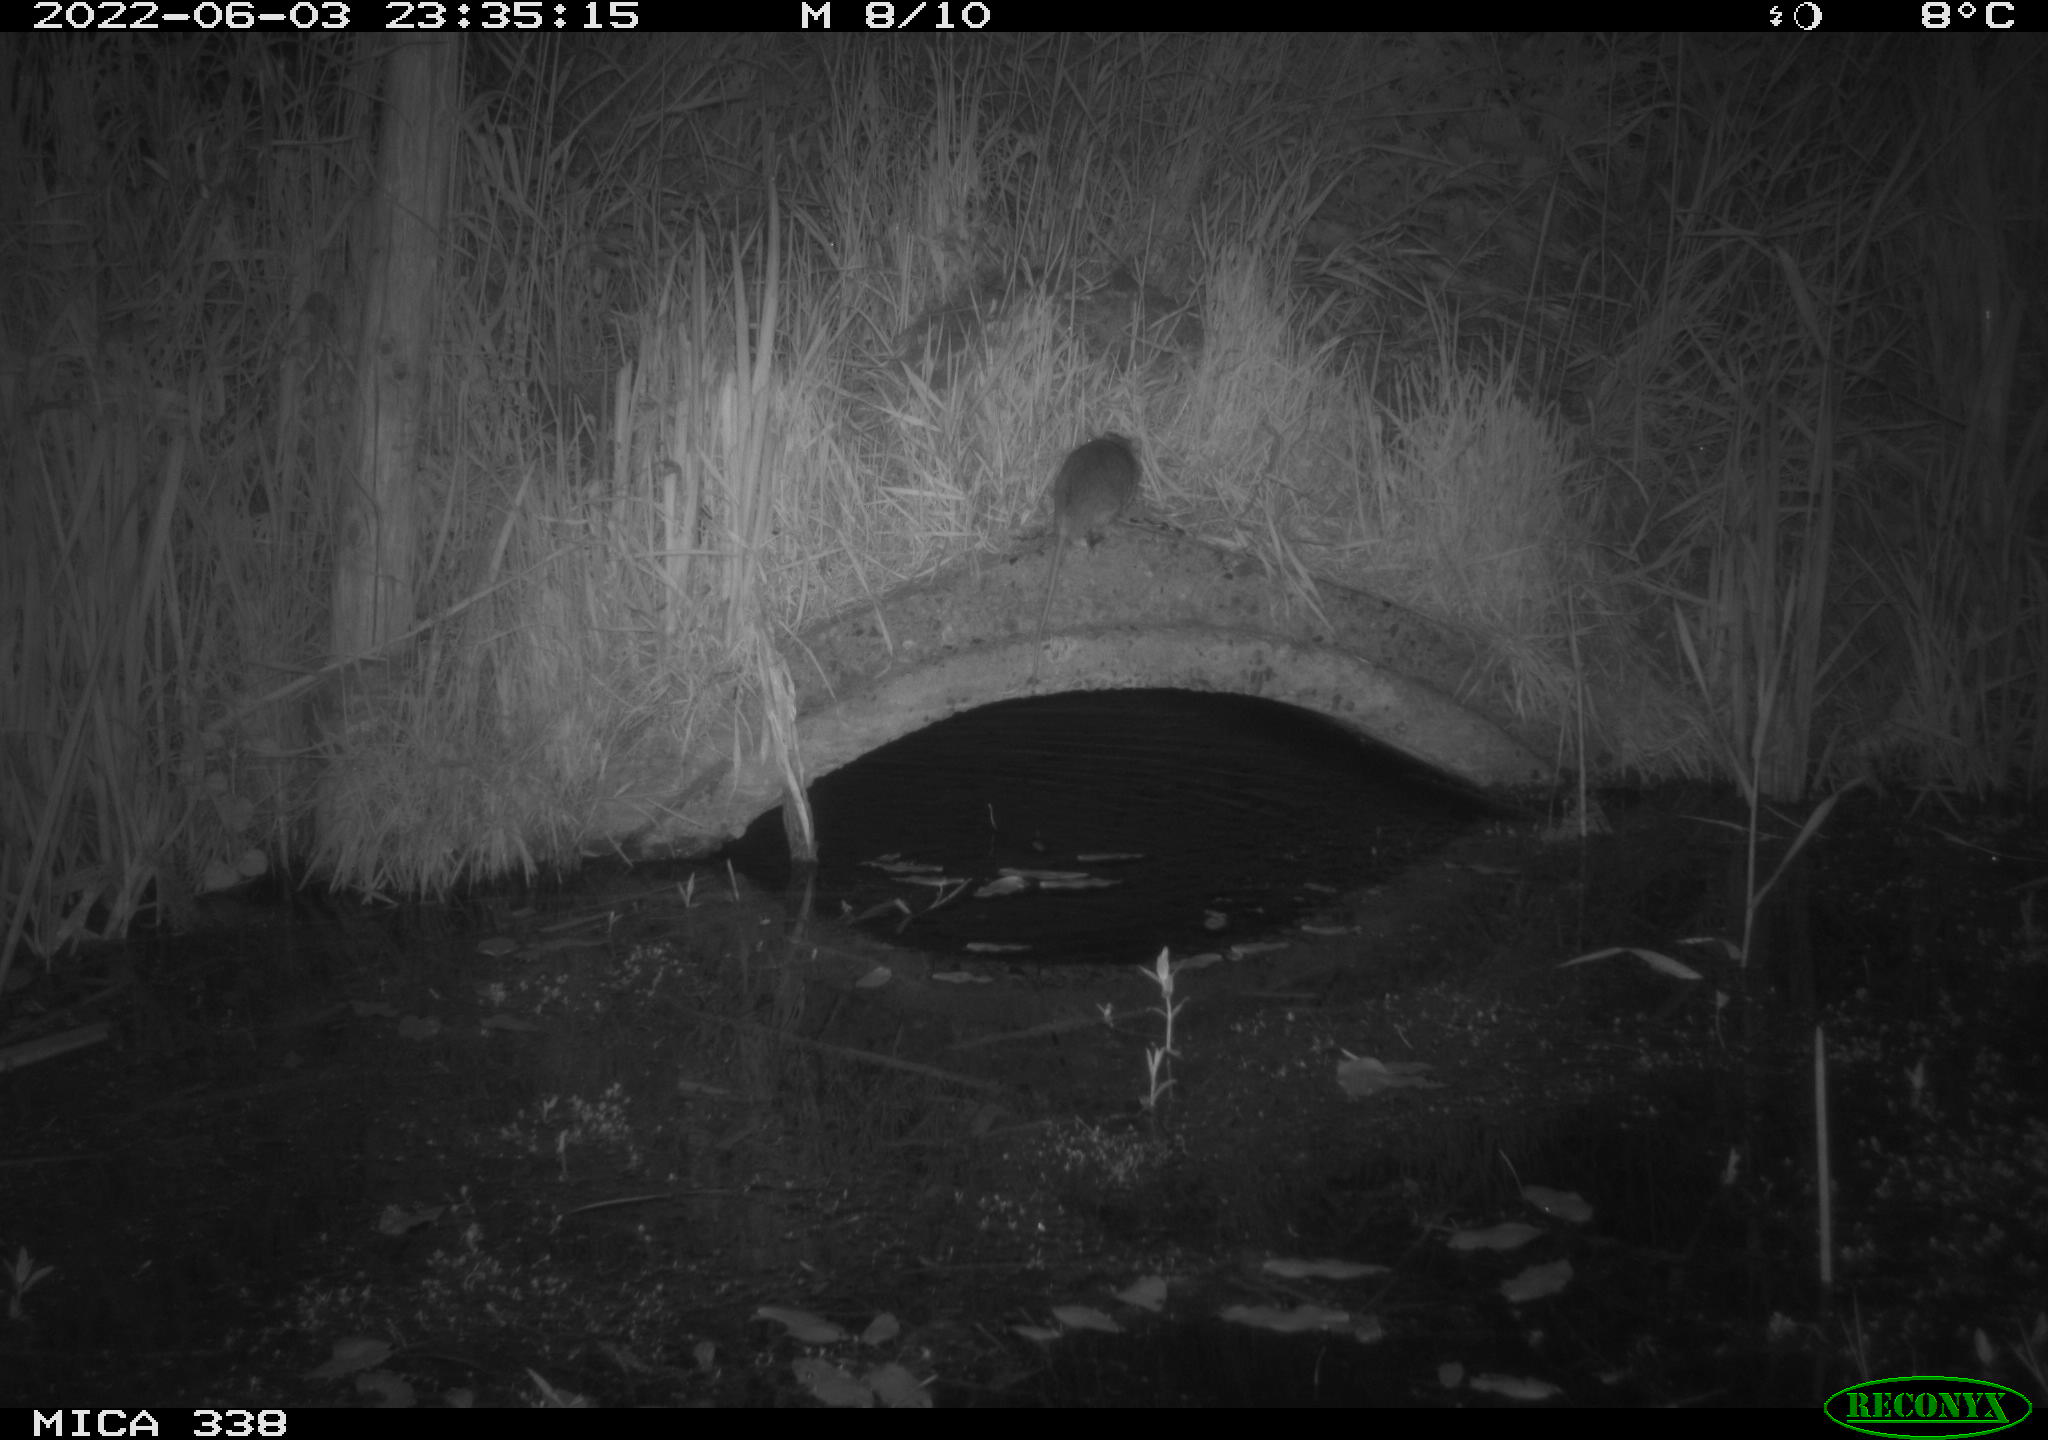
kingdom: Animalia
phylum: Chordata
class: Mammalia
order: Rodentia
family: Muridae
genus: Rattus
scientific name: Rattus norvegicus
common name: Brown rat
